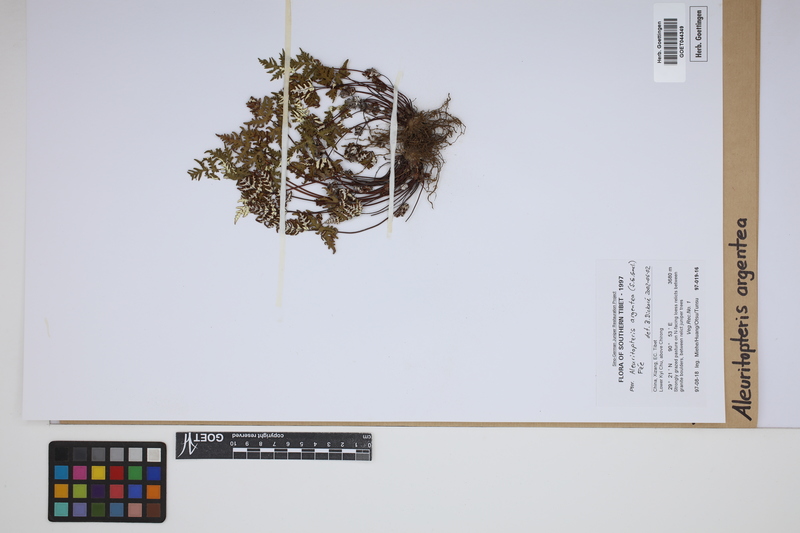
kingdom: Plantae
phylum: Tracheophyta
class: Polypodiopsida
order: Polypodiales
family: Pteridaceae
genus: Aleuritopteris
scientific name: Aleuritopteris argentea
